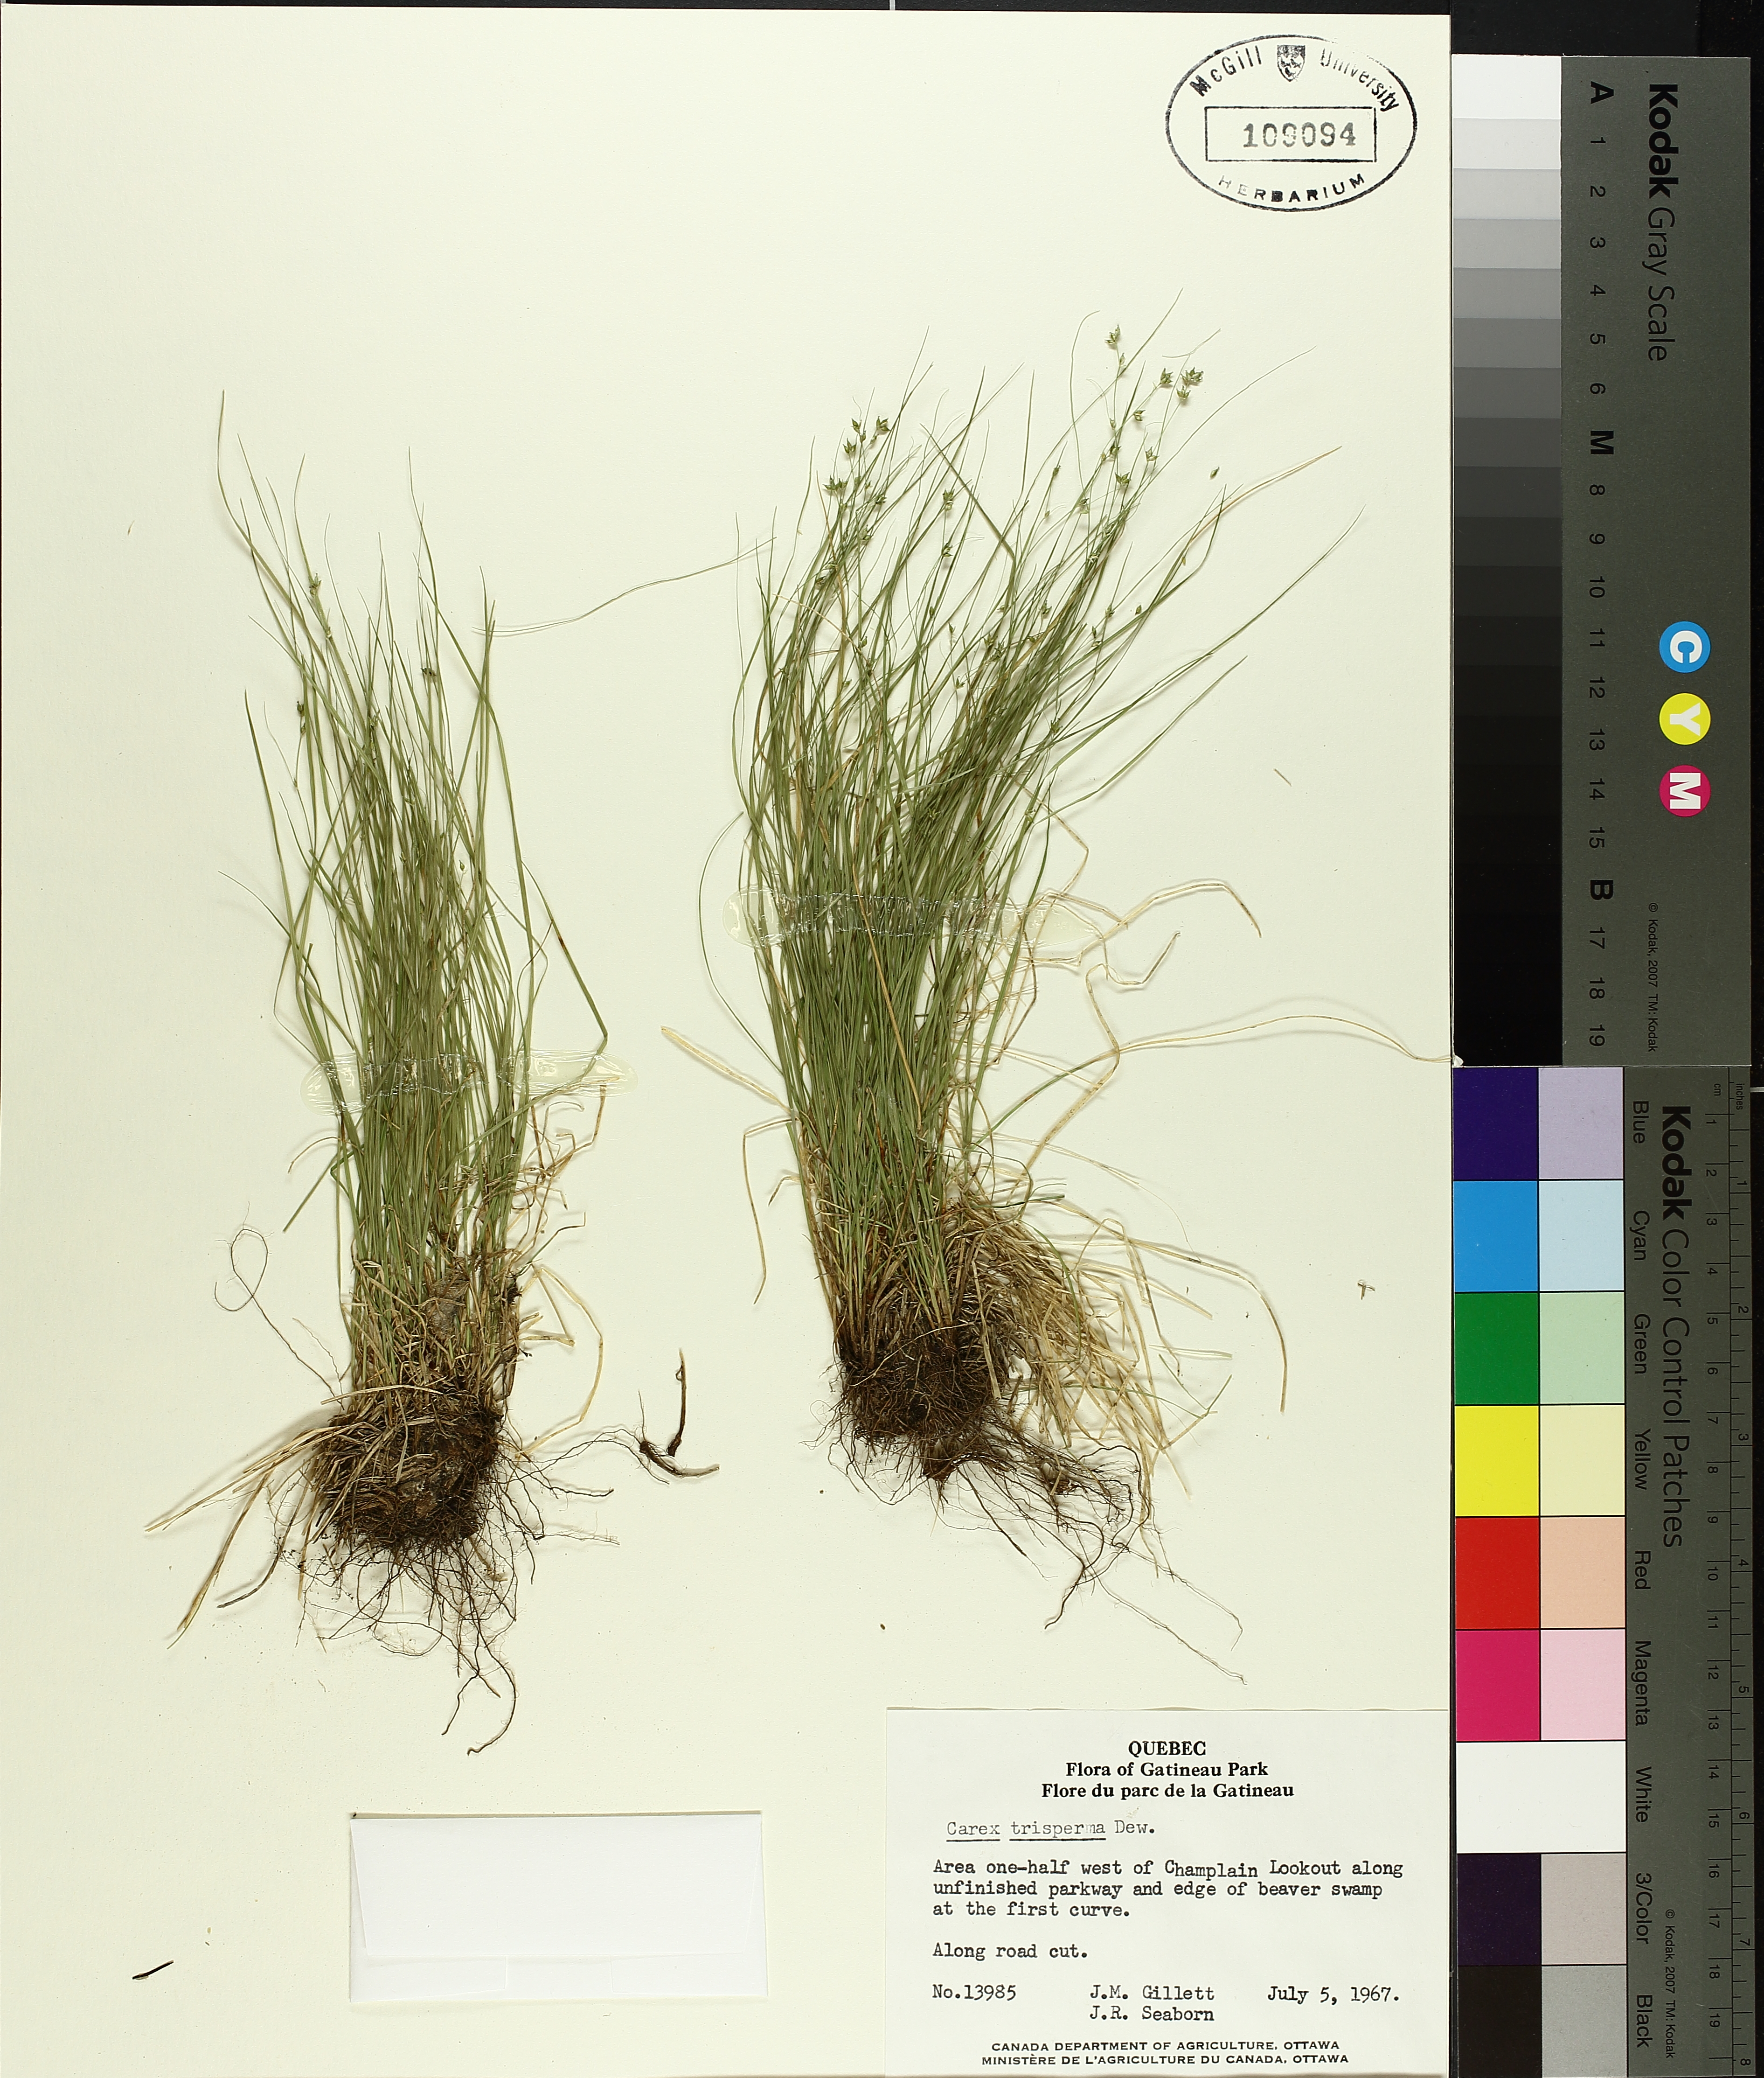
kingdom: Plantae
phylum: Tracheophyta
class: Liliopsida
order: Poales
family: Cyperaceae
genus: Carex
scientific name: Carex trisperma
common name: Three-seeded sedge
